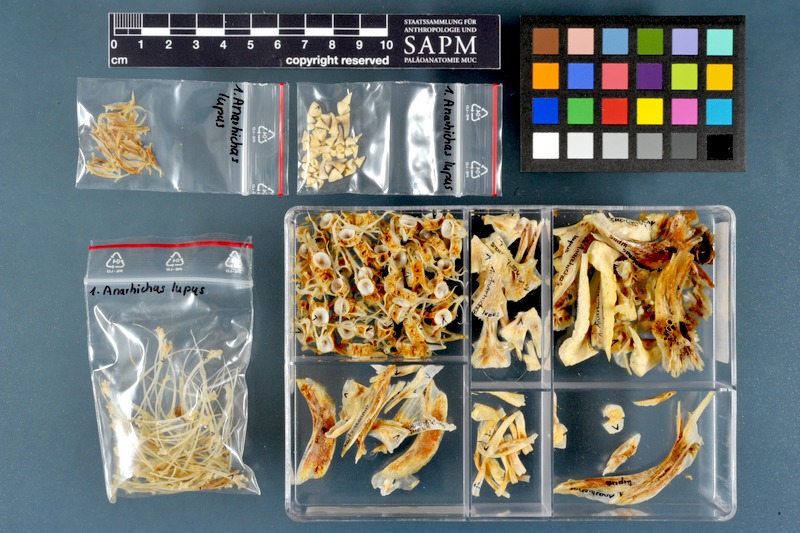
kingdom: Animalia
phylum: Chordata
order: Perciformes
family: Anarhichadidae
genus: Anarhichas
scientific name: Anarhichas lupus
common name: Wolf-fish
